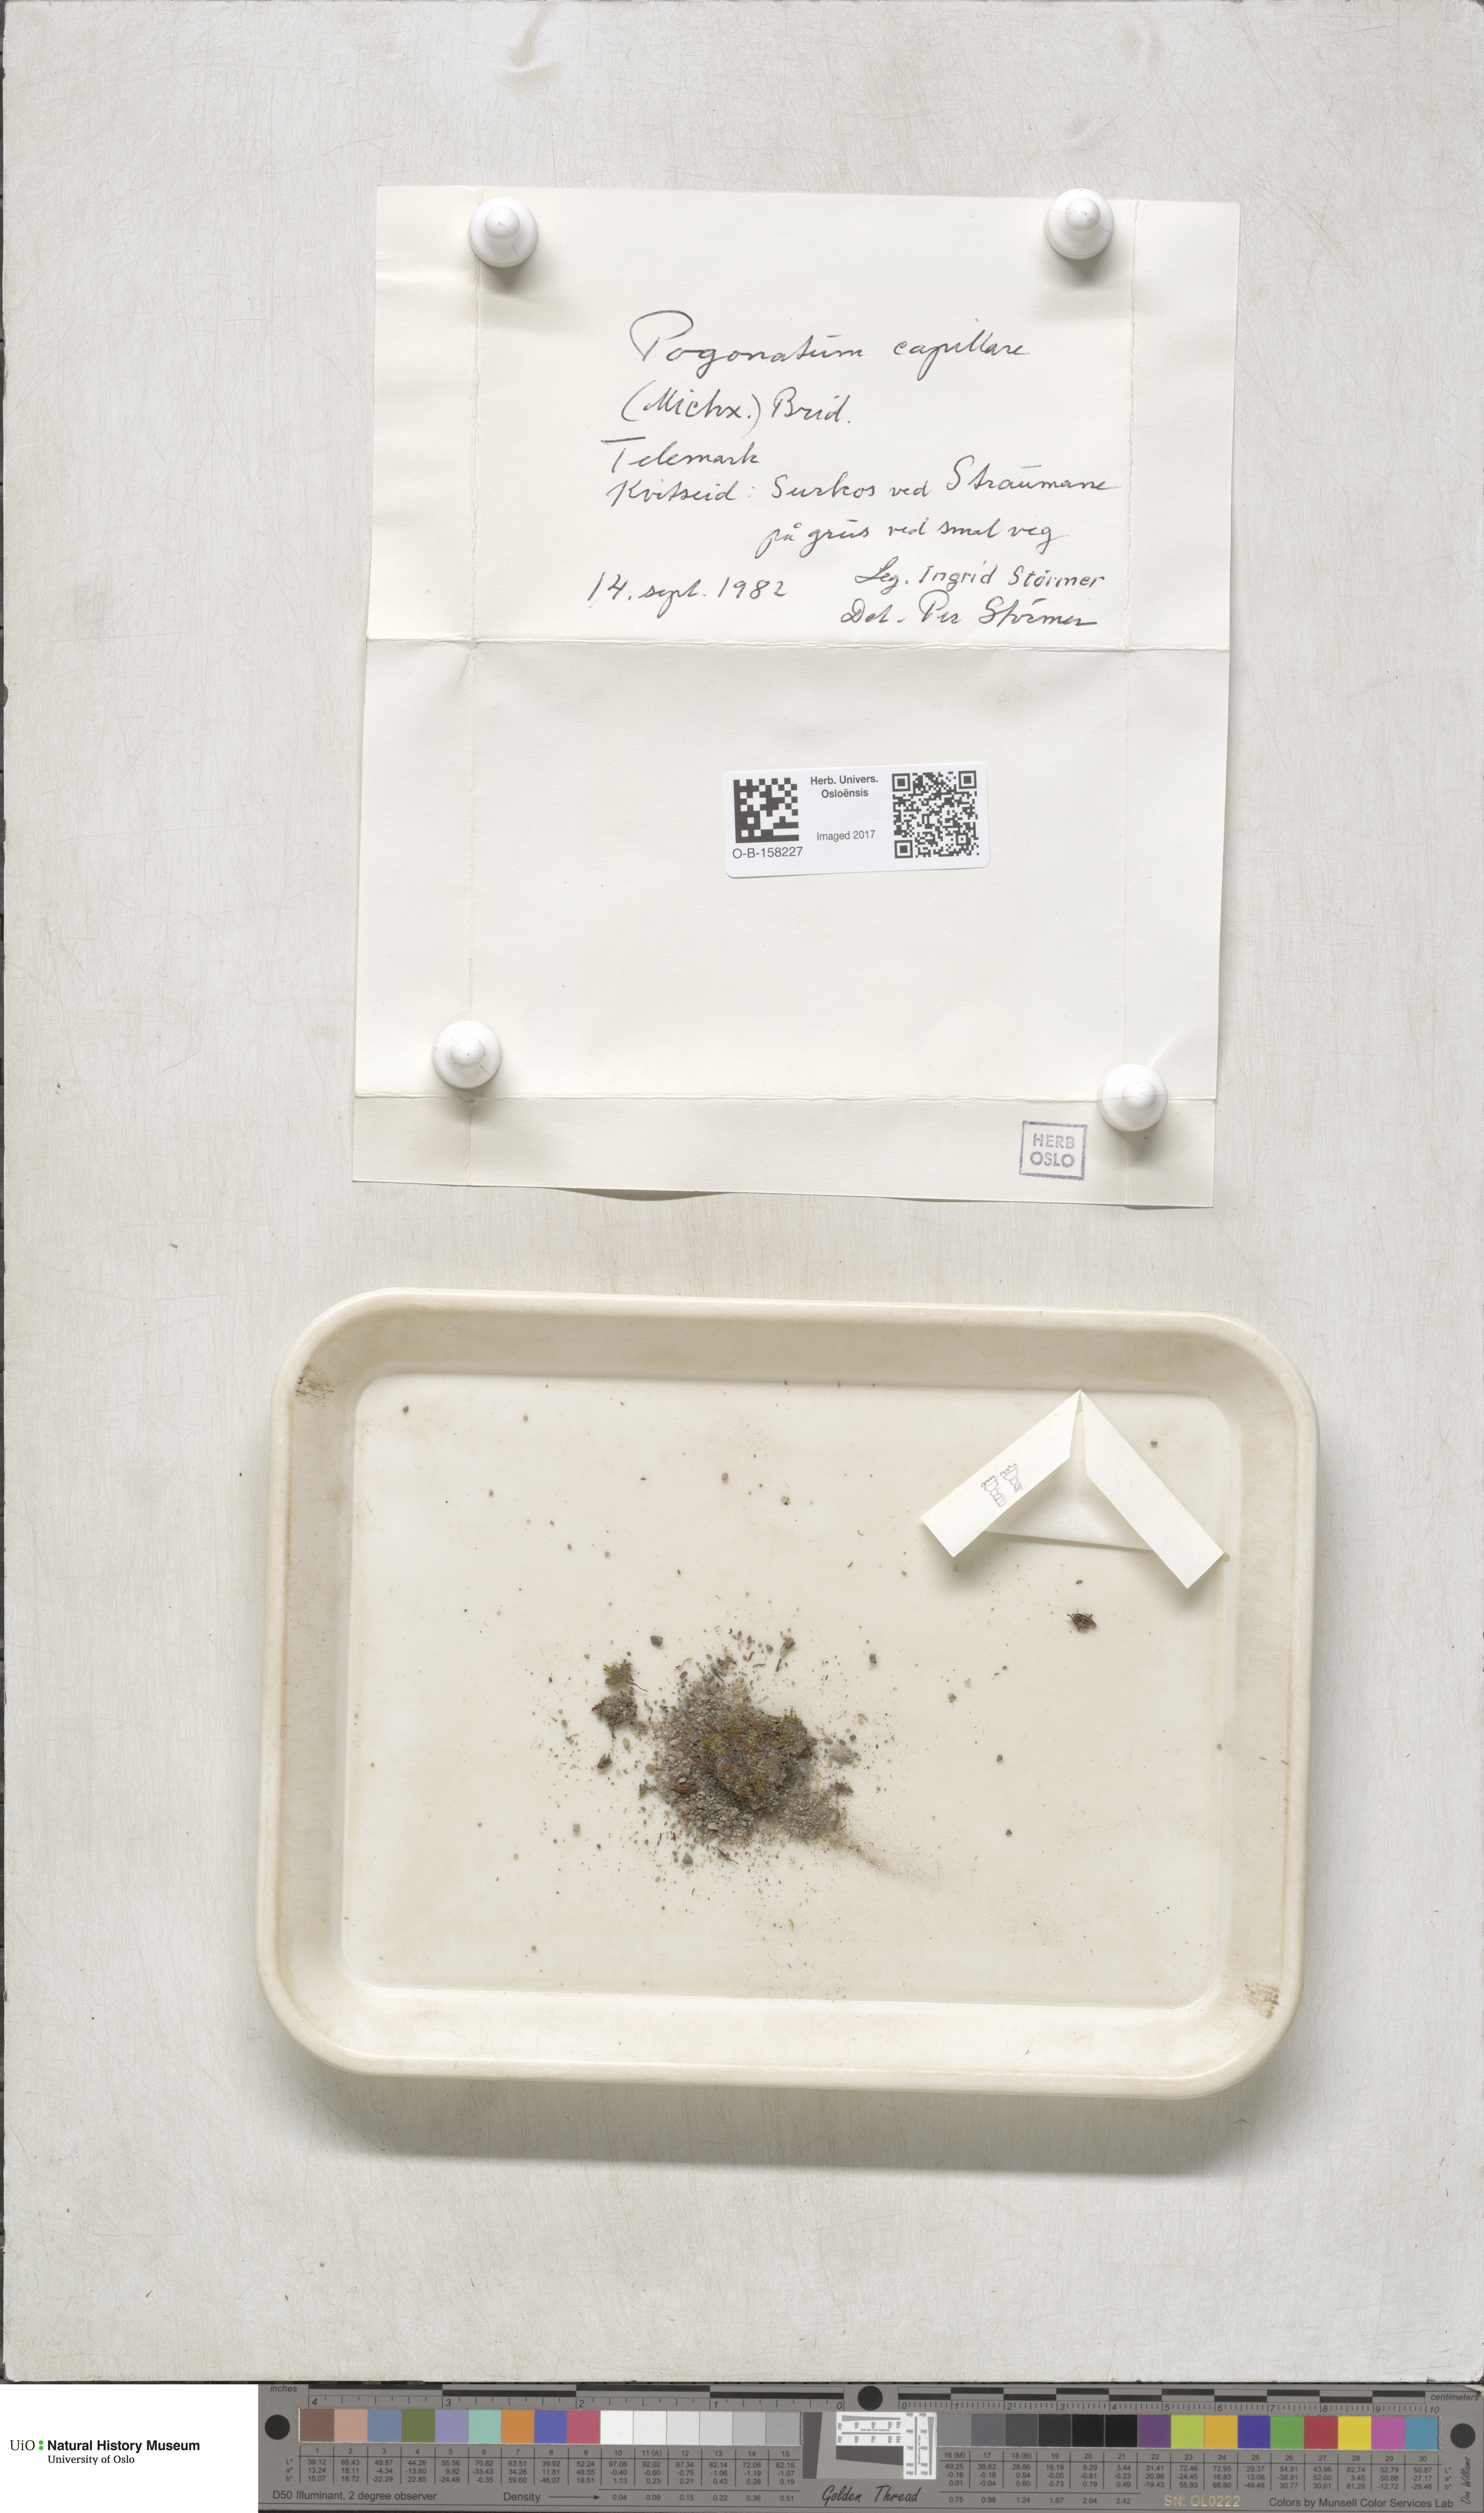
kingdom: Plantae
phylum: Bryophyta
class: Polytrichopsida
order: Polytrichales
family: Polytrichaceae
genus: Pogonatum
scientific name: Pogonatum dentatum
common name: Mountain hair moss
